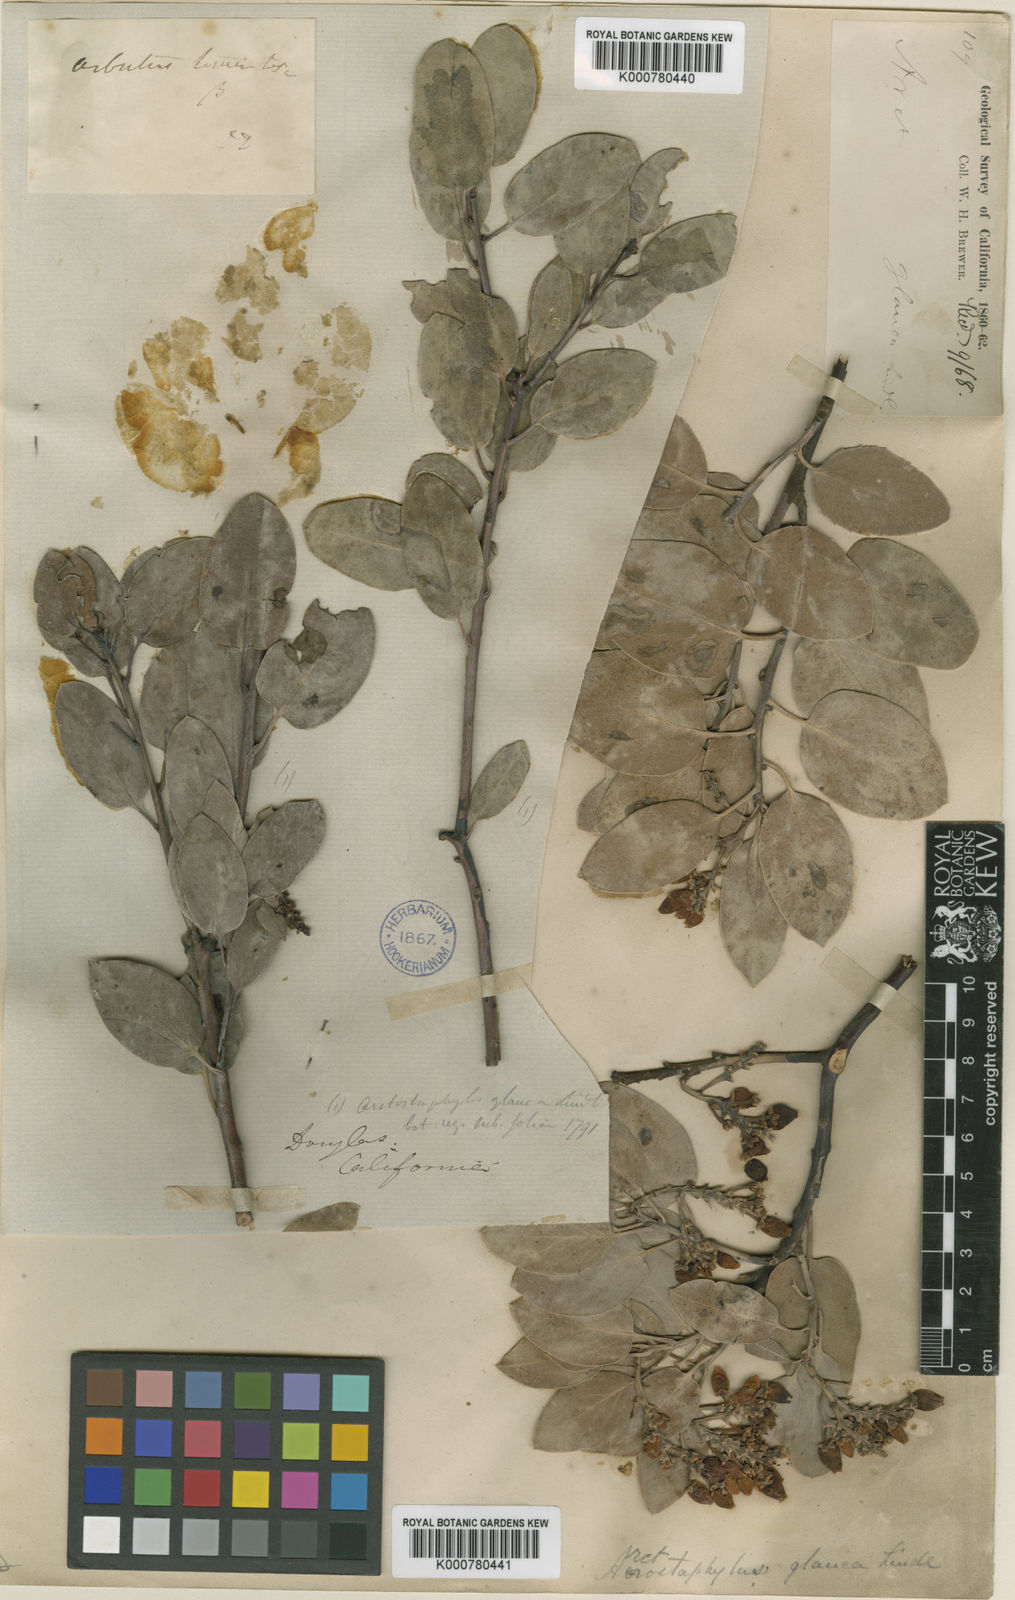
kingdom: Plantae
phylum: Tracheophyta
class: Magnoliopsida
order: Ericales
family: Ericaceae
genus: Arctostaphylos
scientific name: Arctostaphylos glauca
